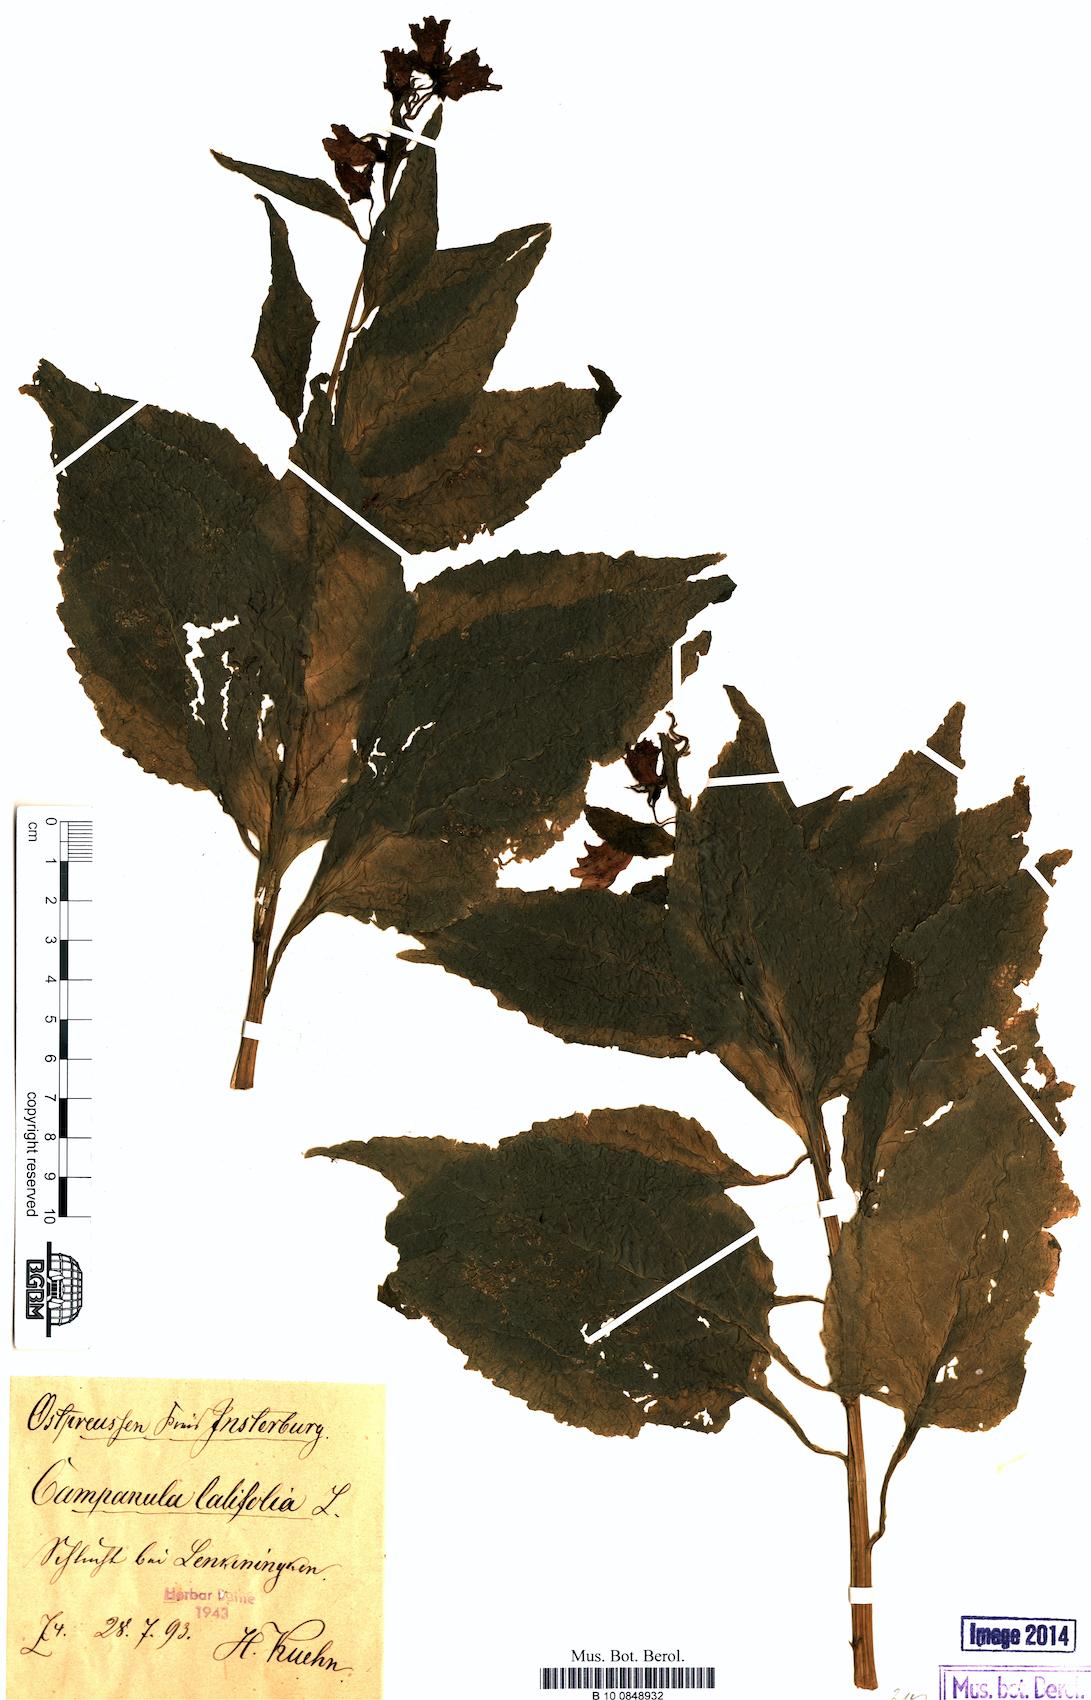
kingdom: Plantae
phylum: Tracheophyta
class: Magnoliopsida
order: Asterales
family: Campanulaceae
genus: Campanula
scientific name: Campanula latifolia
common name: Giant bellflower
